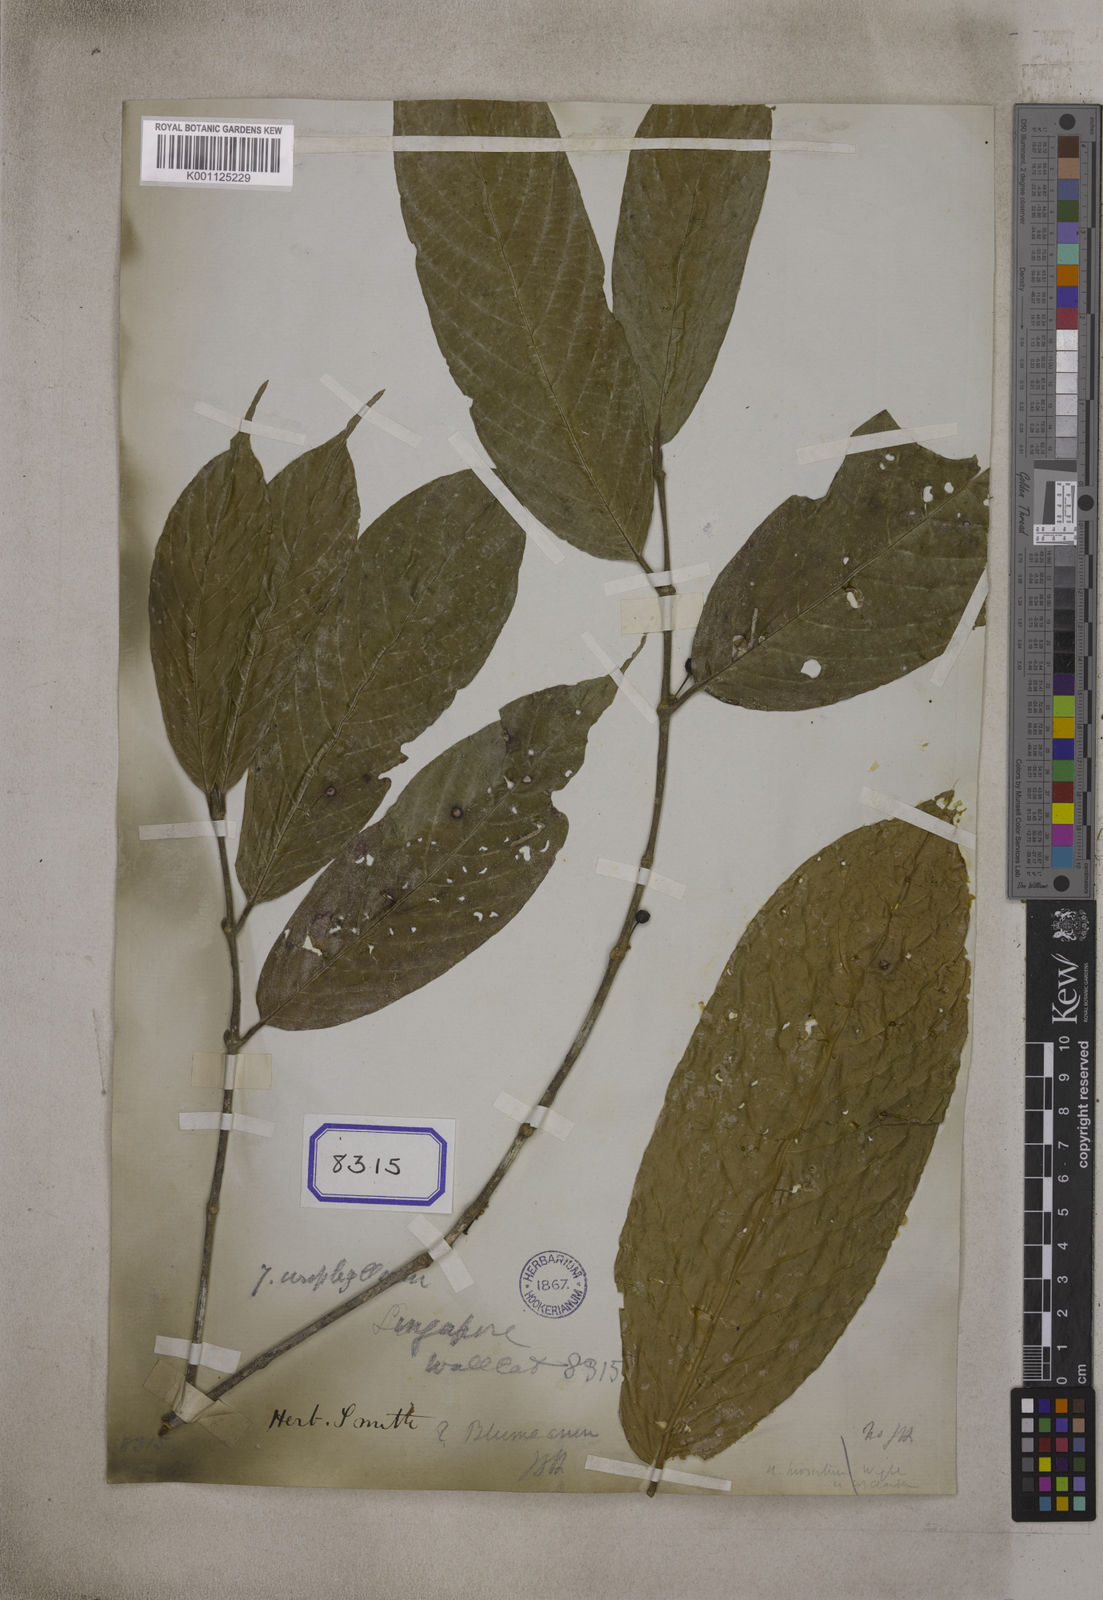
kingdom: Plantae
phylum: Tracheophyta
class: Magnoliopsida
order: Gentianales
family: Rubiaceae
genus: Urophyllum
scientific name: Urophyllum
